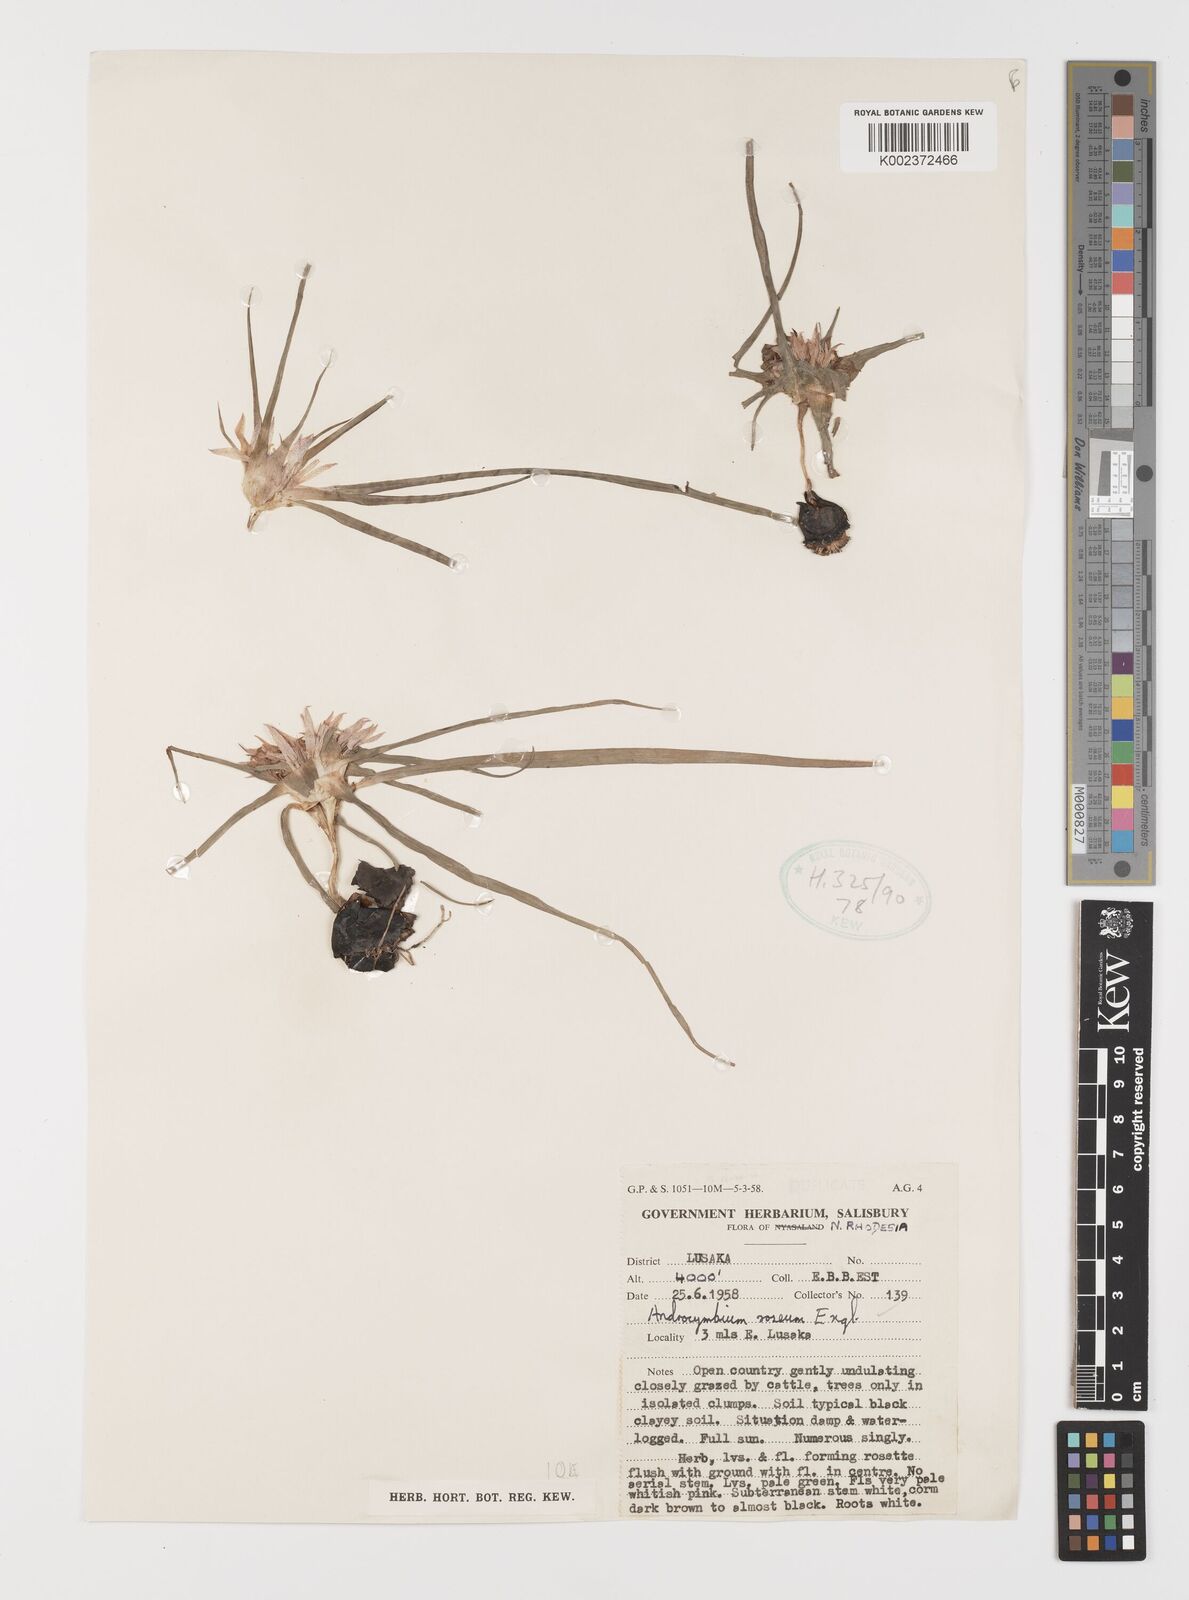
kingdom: Plantae
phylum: Tracheophyta
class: Liliopsida
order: Liliales
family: Colchicaceae
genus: Colchicum
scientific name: Colchicum roseum
